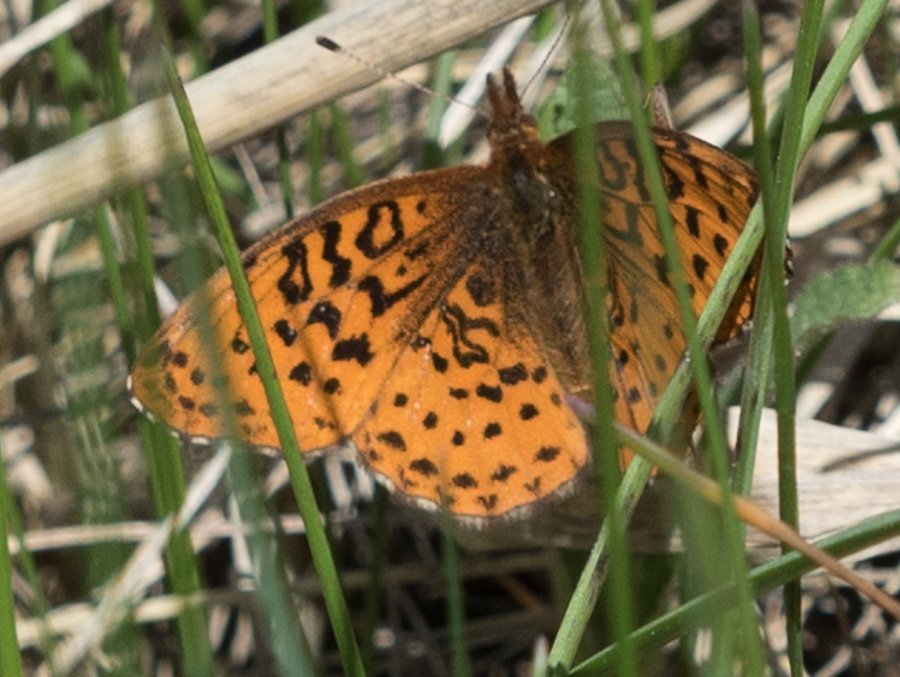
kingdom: Animalia
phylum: Arthropoda
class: Insecta
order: Lepidoptera
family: Nymphalidae
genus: Clossiana
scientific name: Clossiana toddi
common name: Meadow Fritillary
